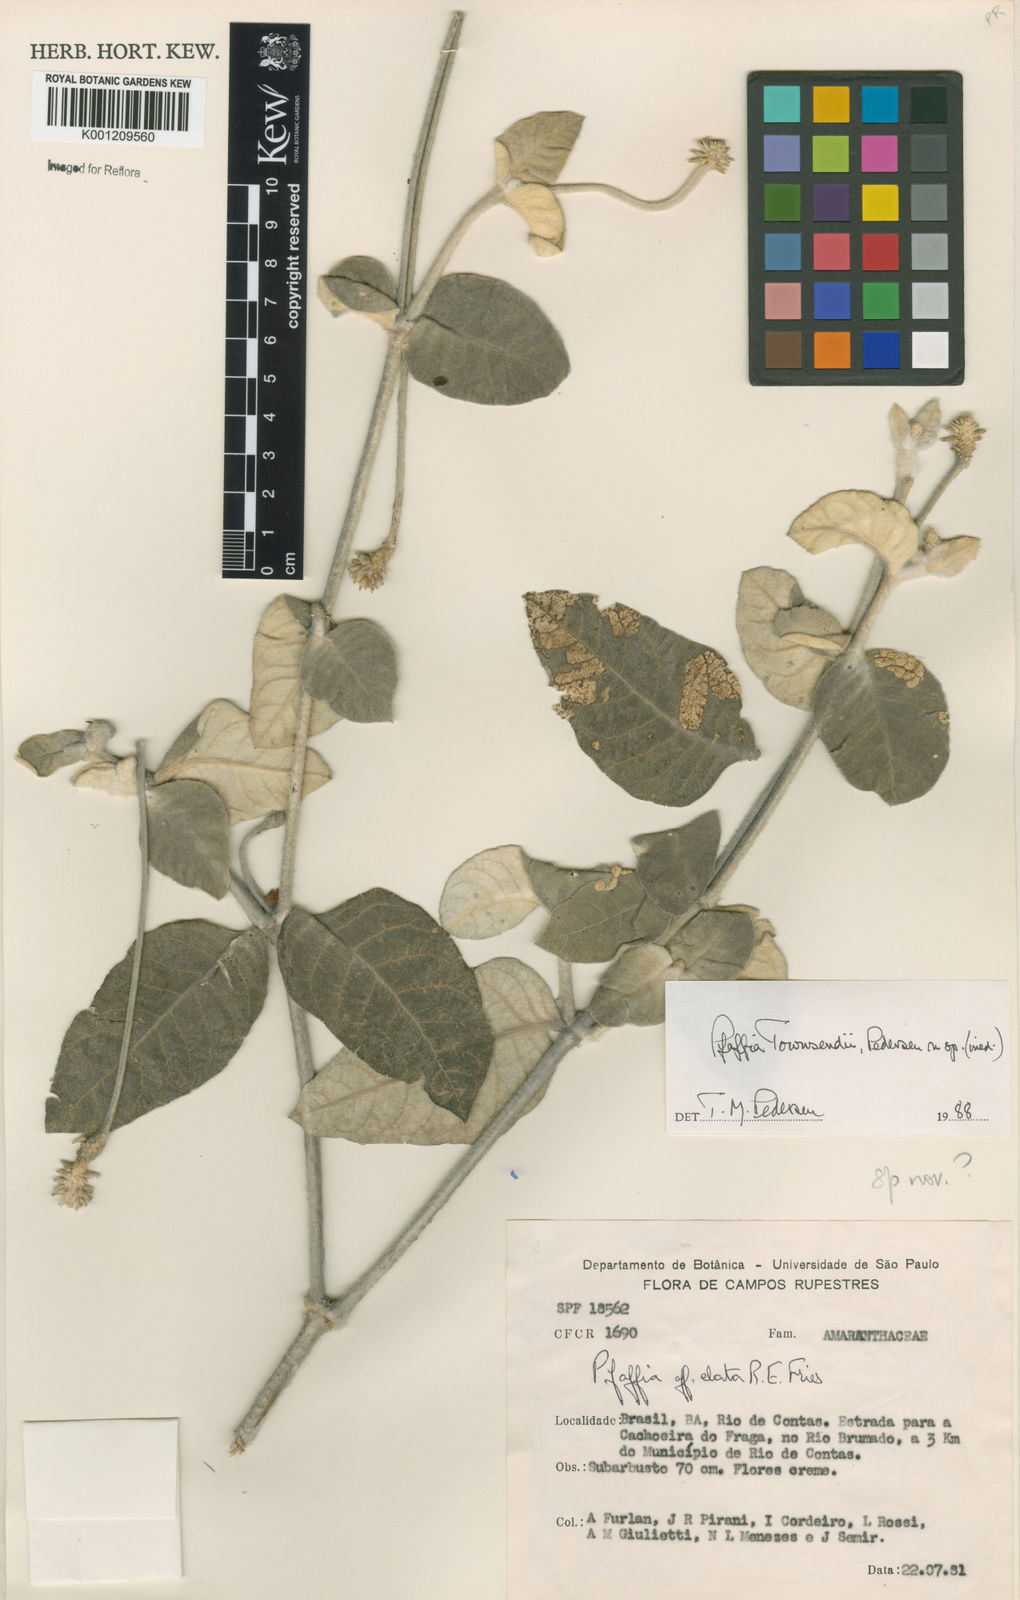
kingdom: Plantae
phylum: Tracheophyta
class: Magnoliopsida
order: Caryophyllales
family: Amaranthaceae
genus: Pfaffia
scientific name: Pfaffia townsendii
